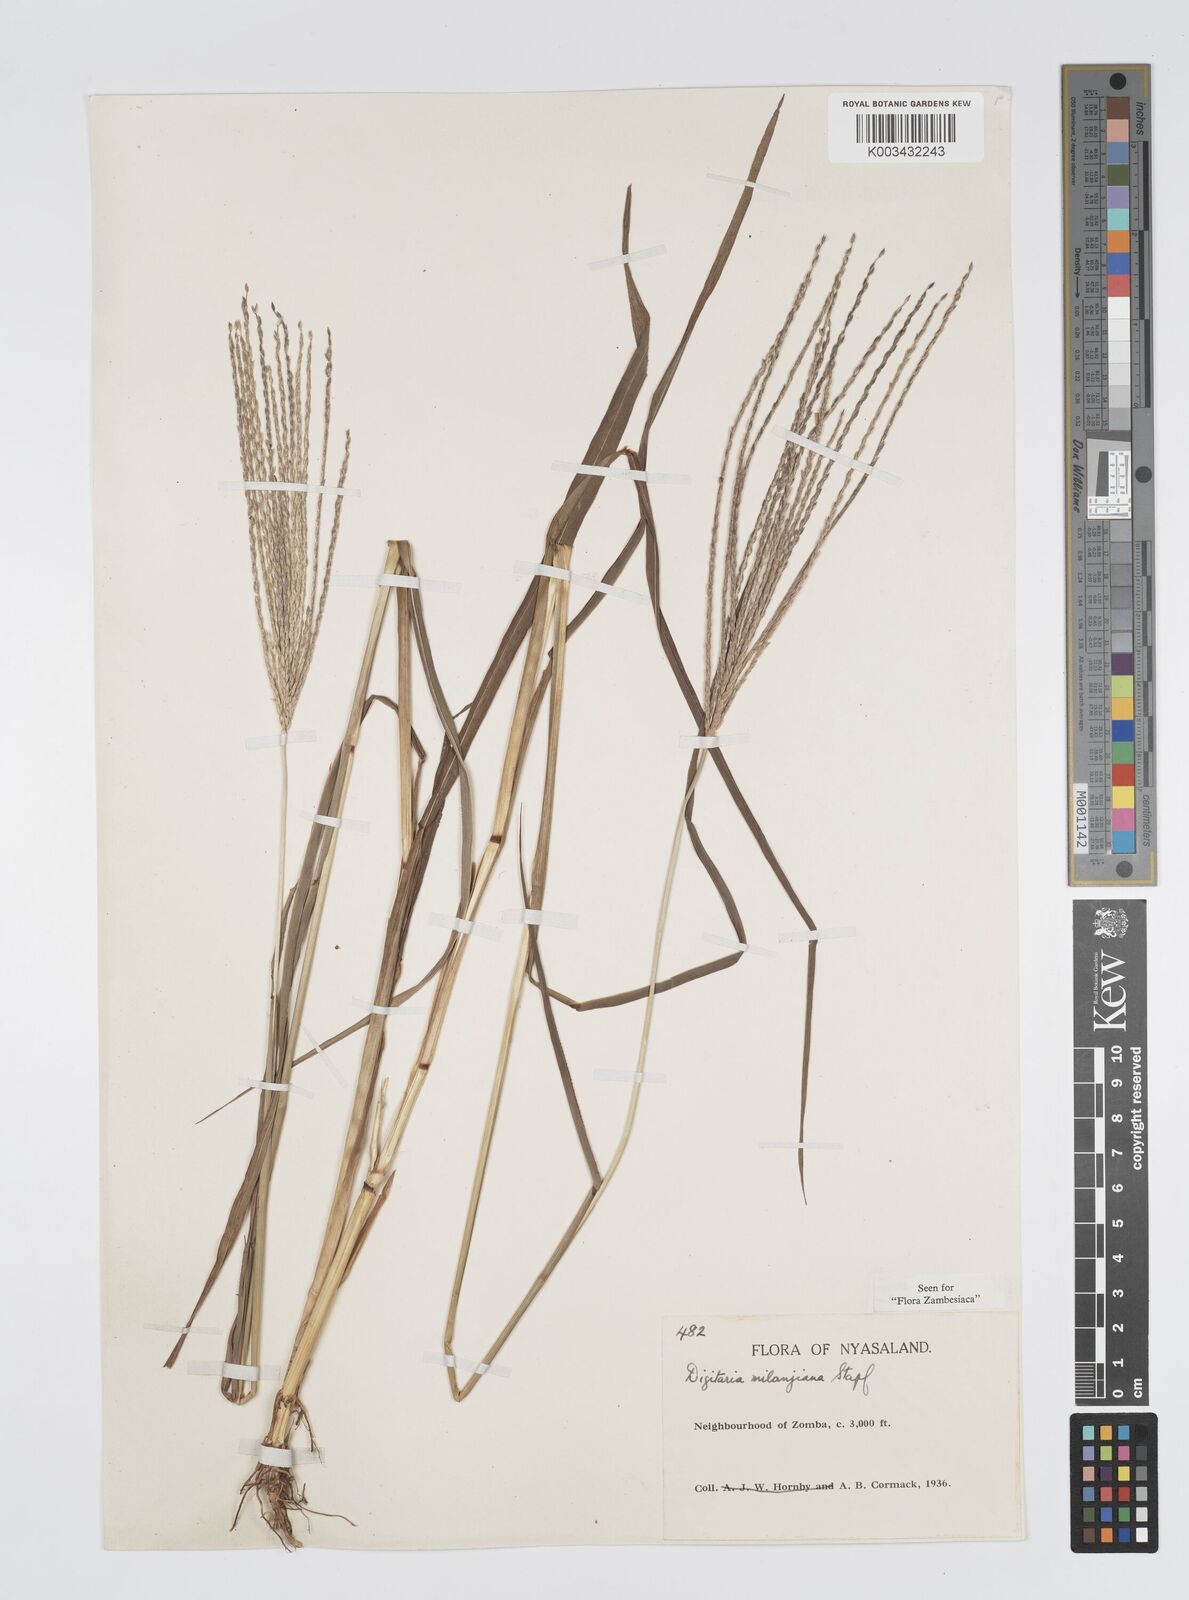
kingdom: Plantae
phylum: Tracheophyta
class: Liliopsida
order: Poales
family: Poaceae
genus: Digitaria
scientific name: Digitaria milanjiana
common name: Madagascar crabgrass
